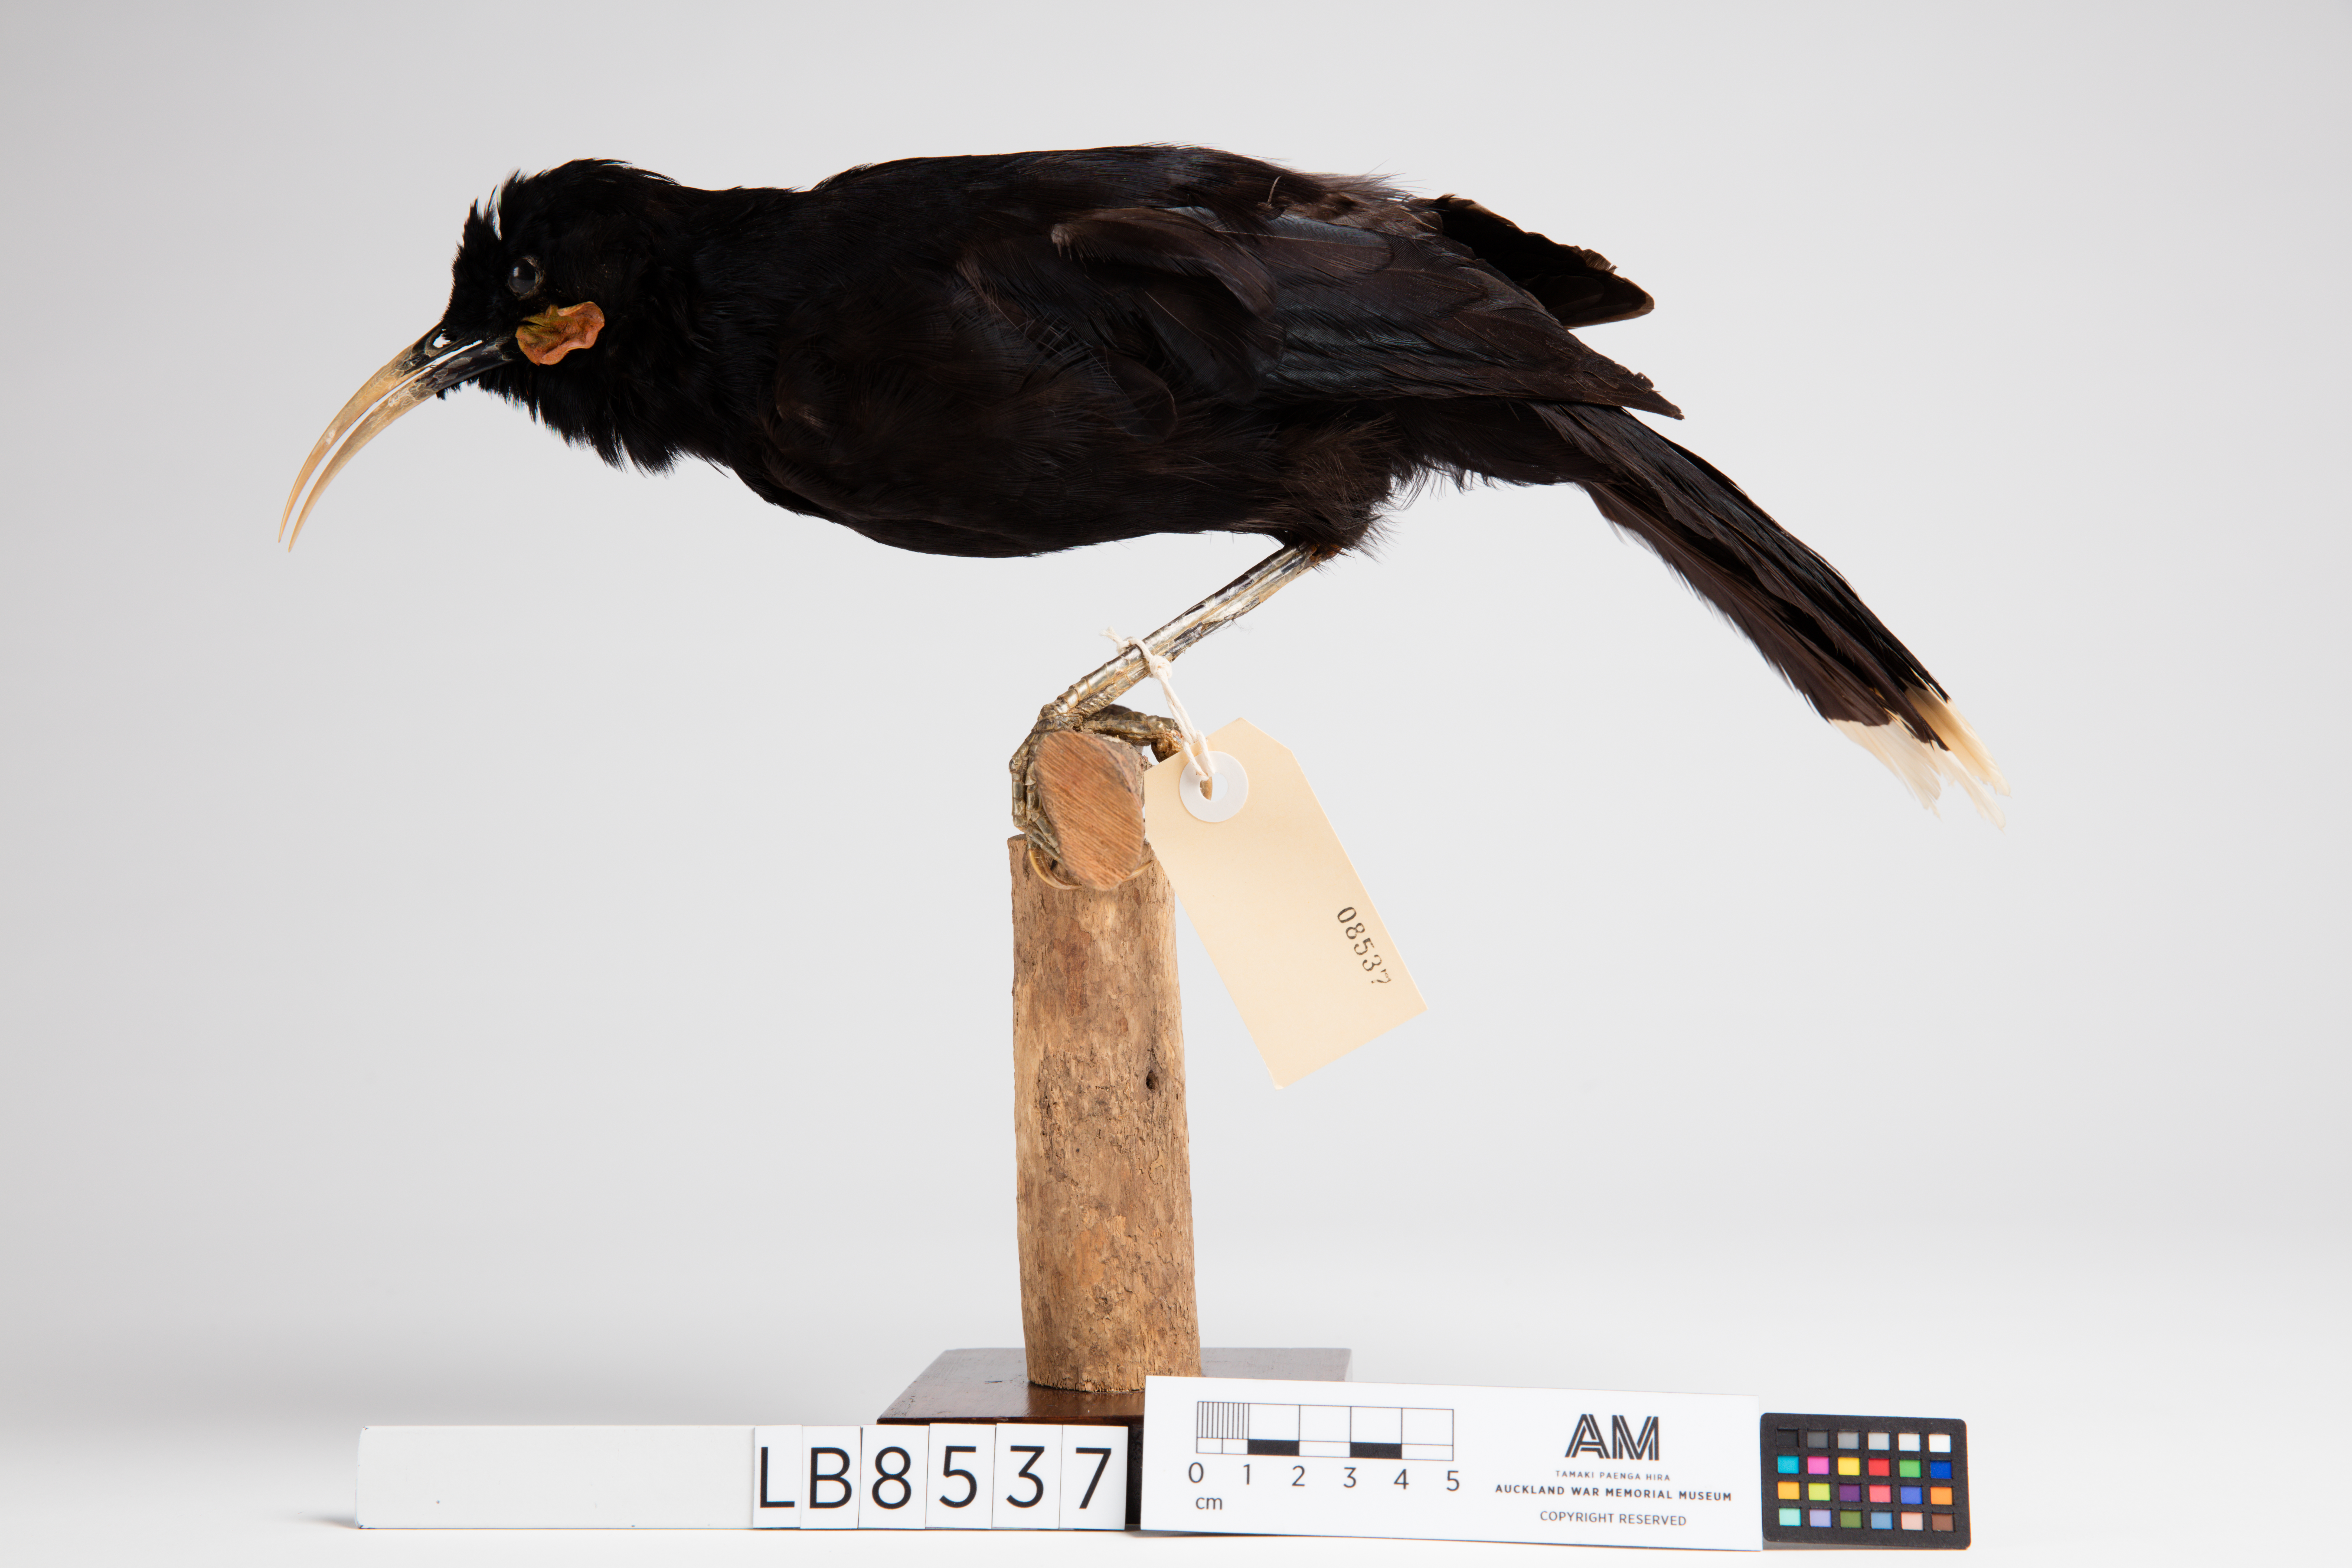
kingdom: Animalia
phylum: Chordata
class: Aves
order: Passeriformes
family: Callaeatidae
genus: Heteralocha
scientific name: Heteralocha acutirostris
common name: Huia
